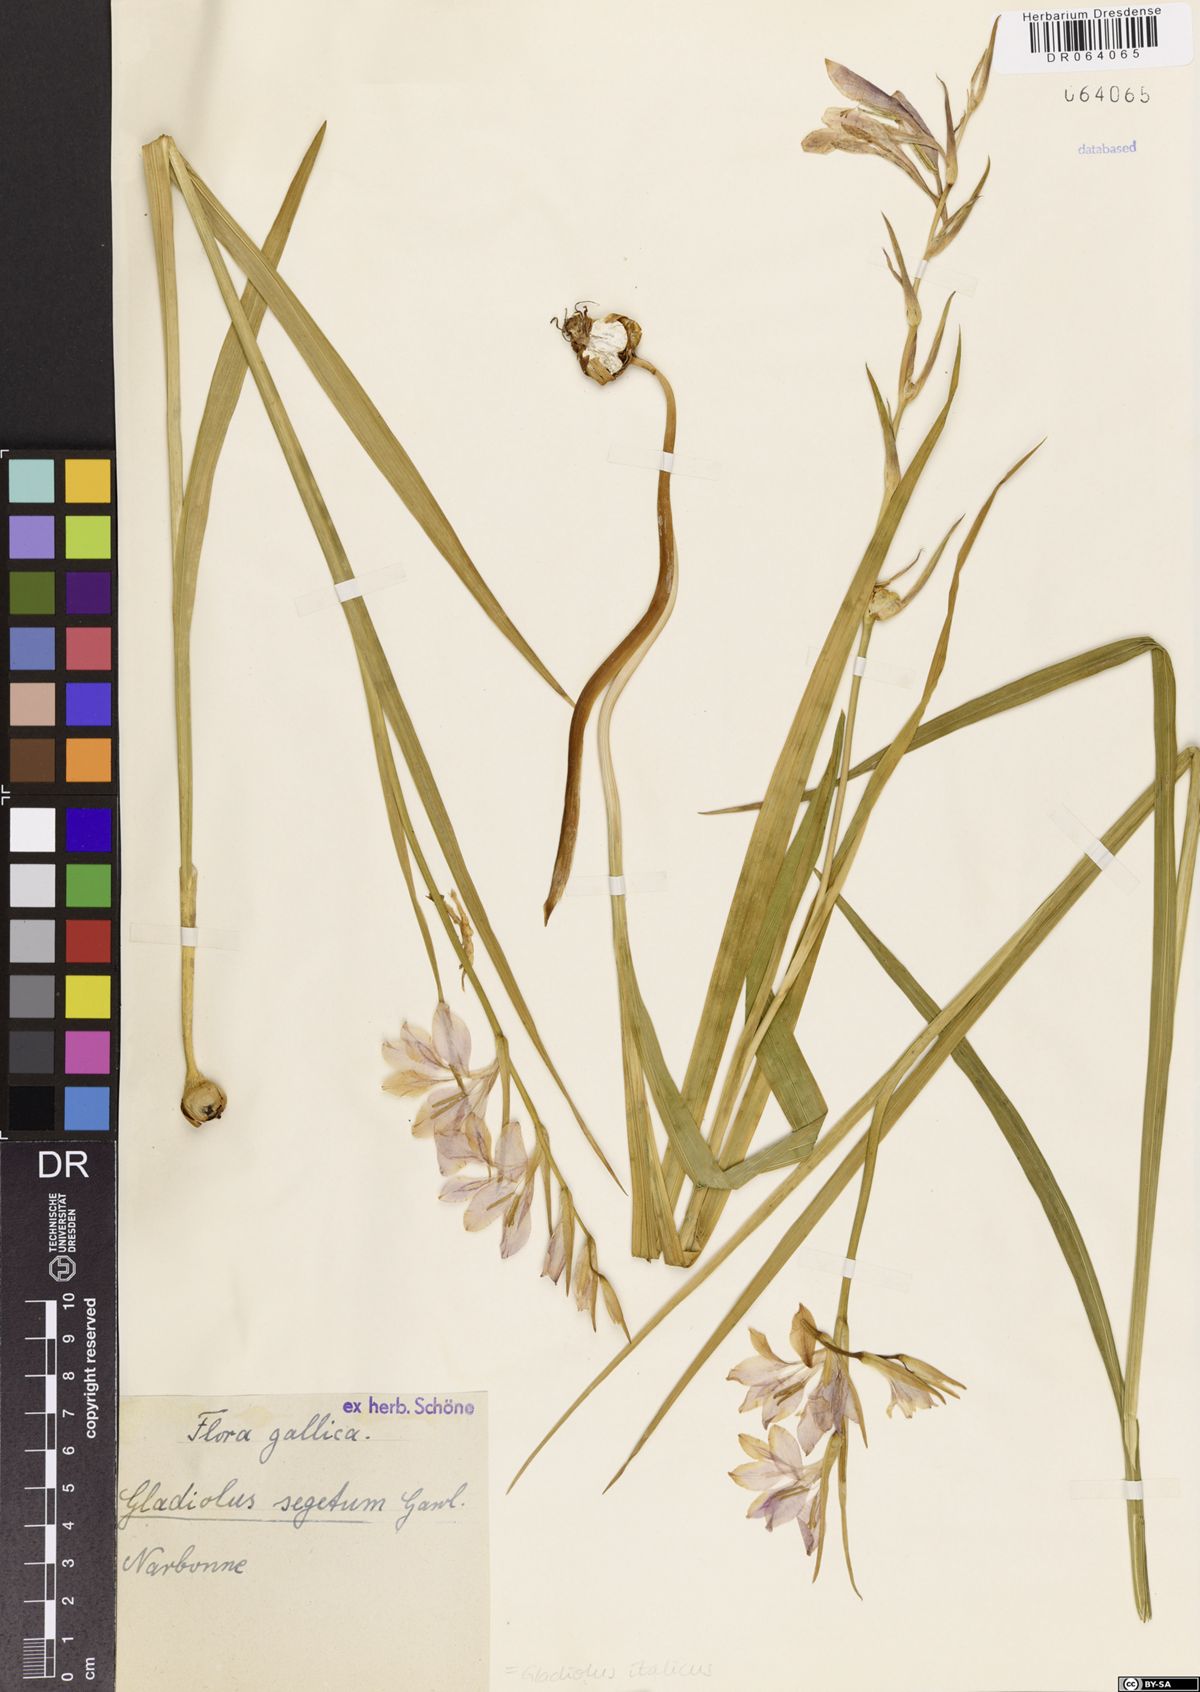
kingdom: Plantae
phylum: Tracheophyta
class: Liliopsida
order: Asparagales
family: Iridaceae
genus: Gladiolus
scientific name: Gladiolus italicus
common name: Field gladiolus
